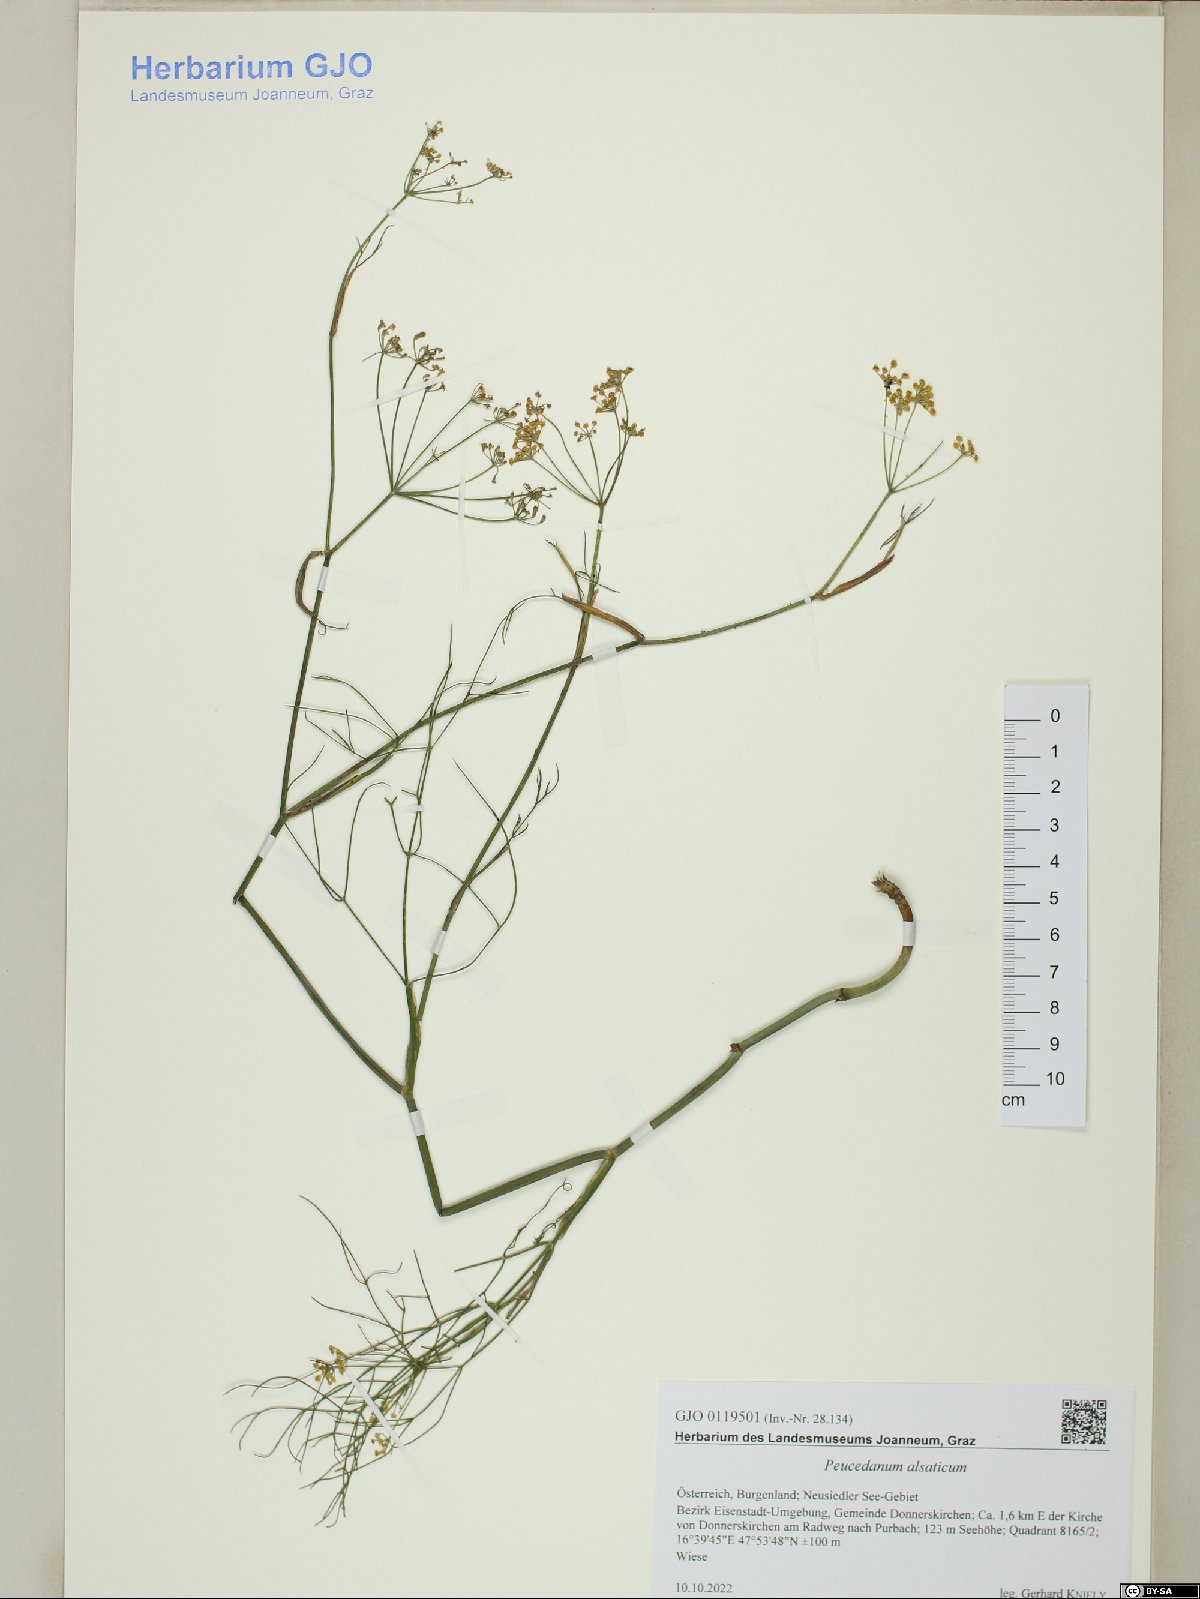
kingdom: Plantae
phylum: Tracheophyta
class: Magnoliopsida
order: Apiales
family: Apiaceae
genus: Xanthoselinum
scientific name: Xanthoselinum alsaticum
